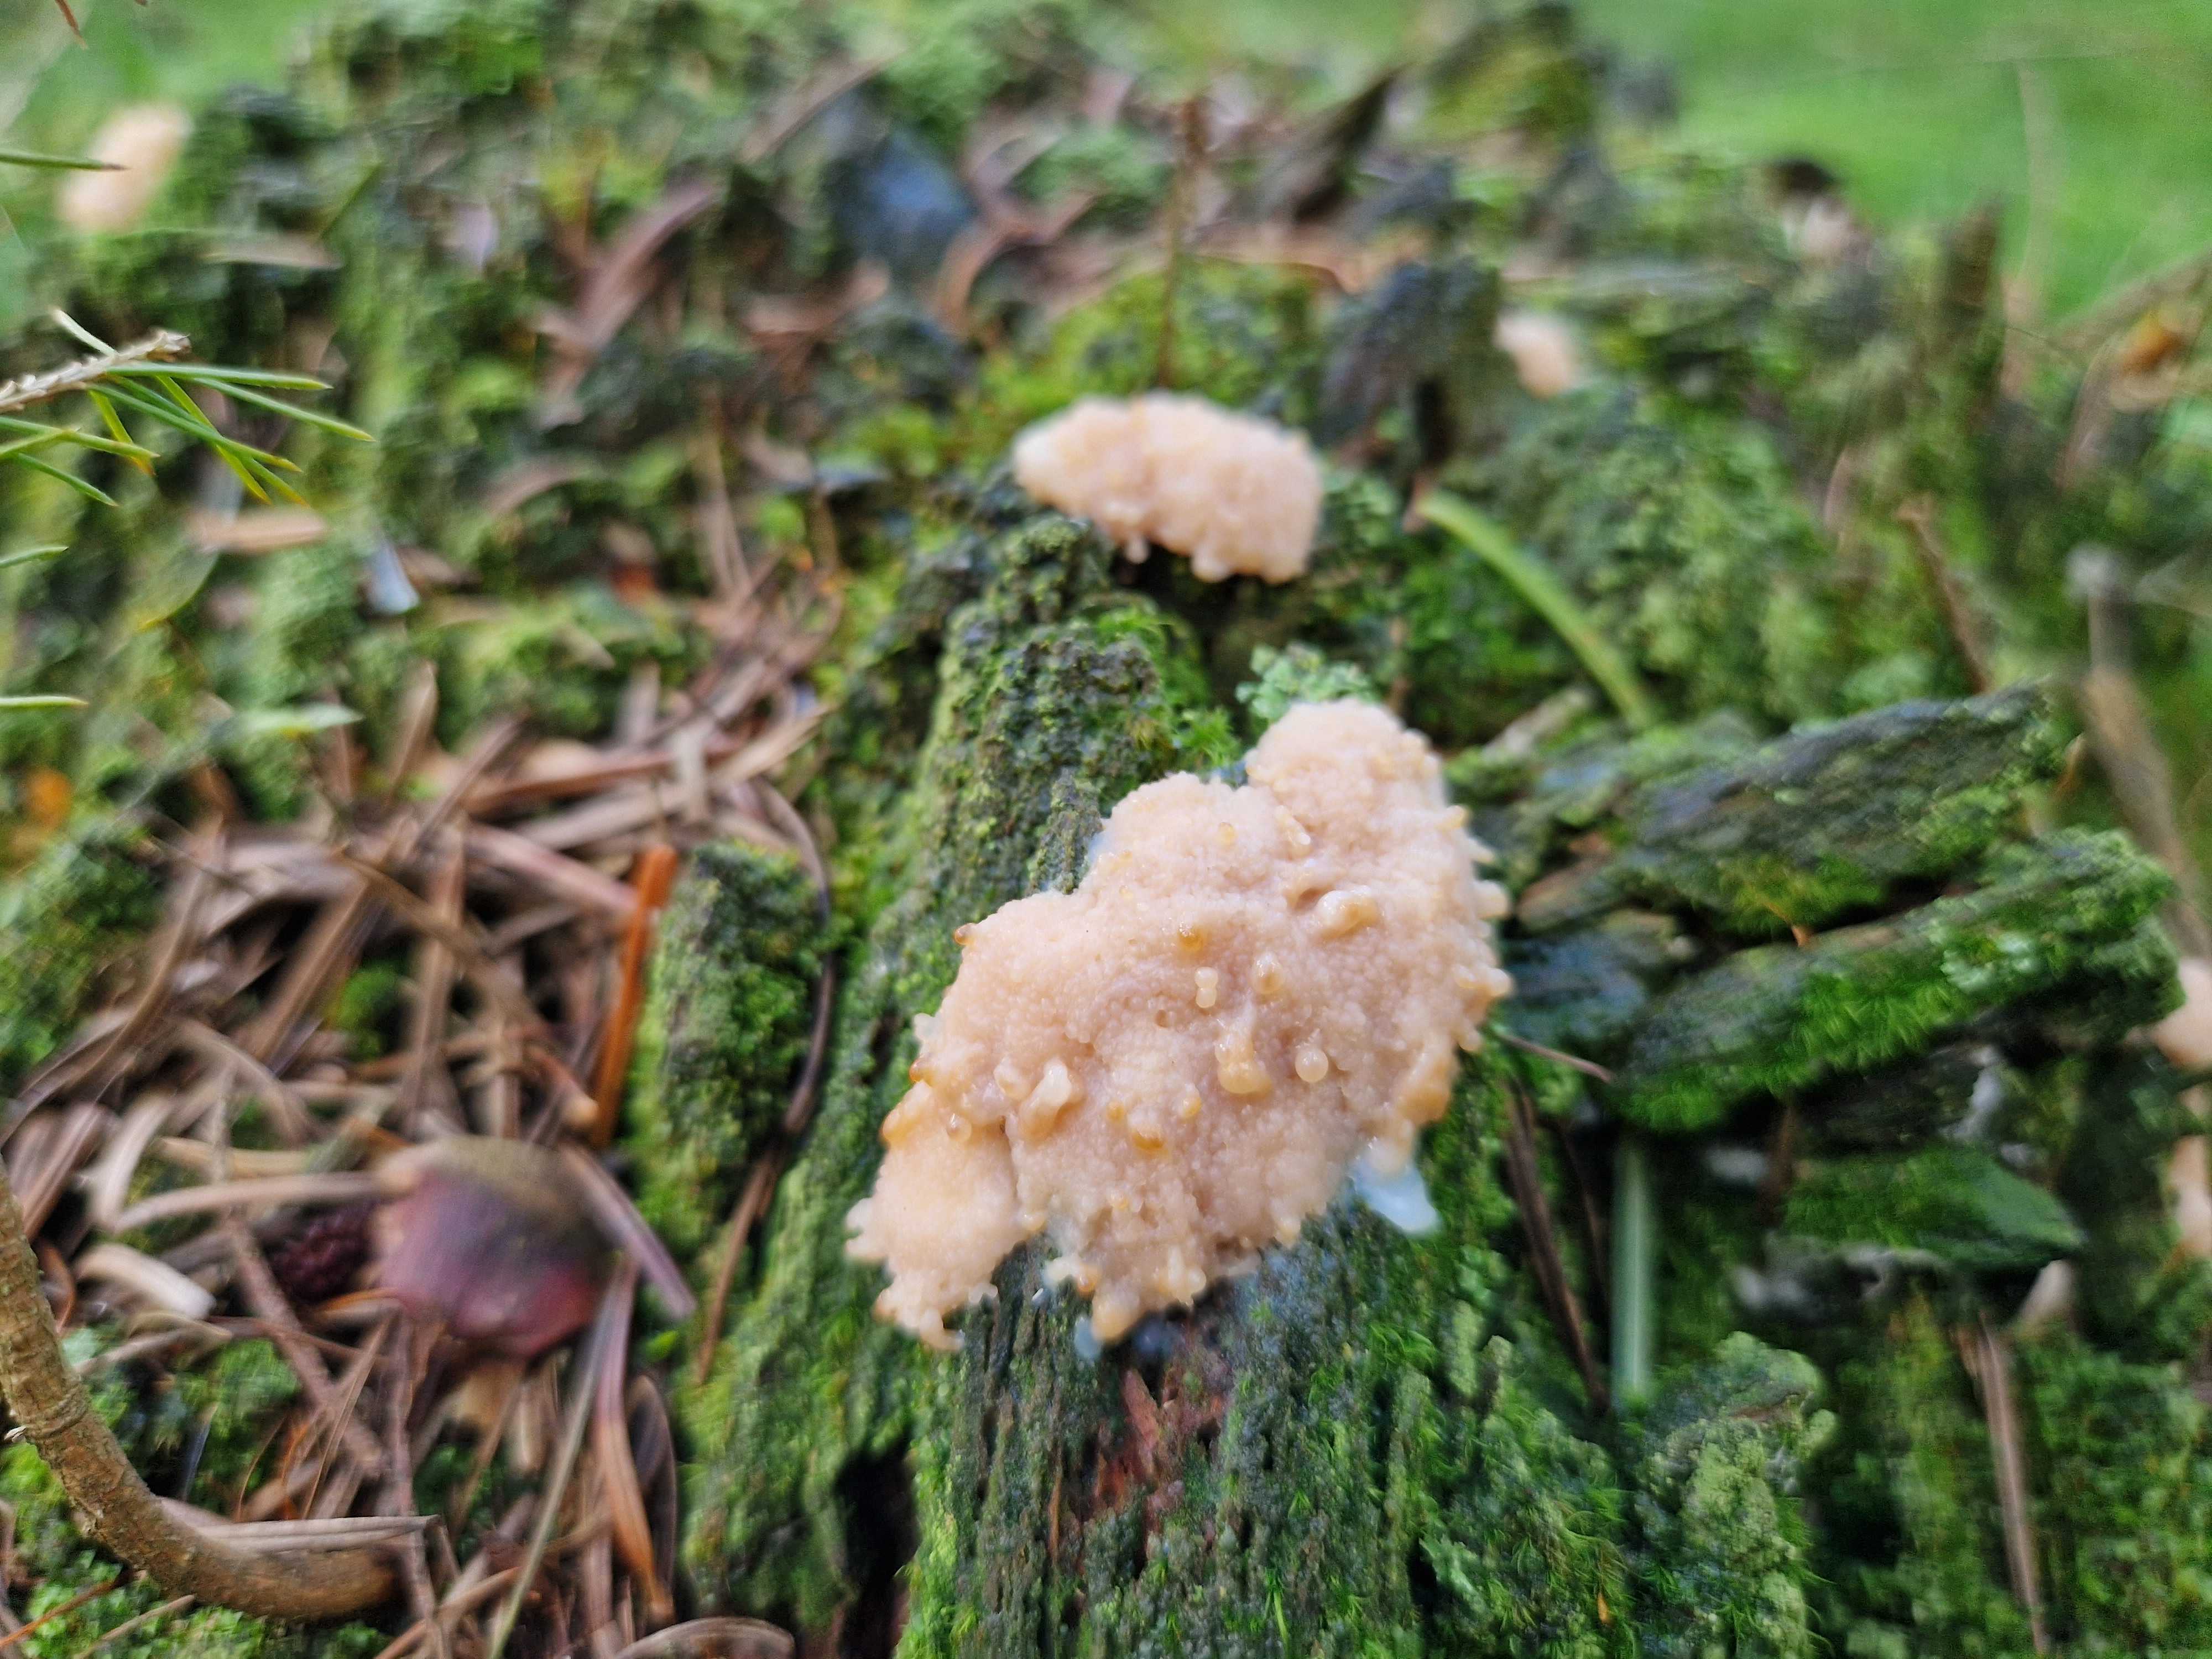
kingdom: Protozoa
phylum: Mycetozoa
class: Myxomycetes
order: Cribrariales
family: Tubiferaceae
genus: Tubifera
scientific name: Tubifera
